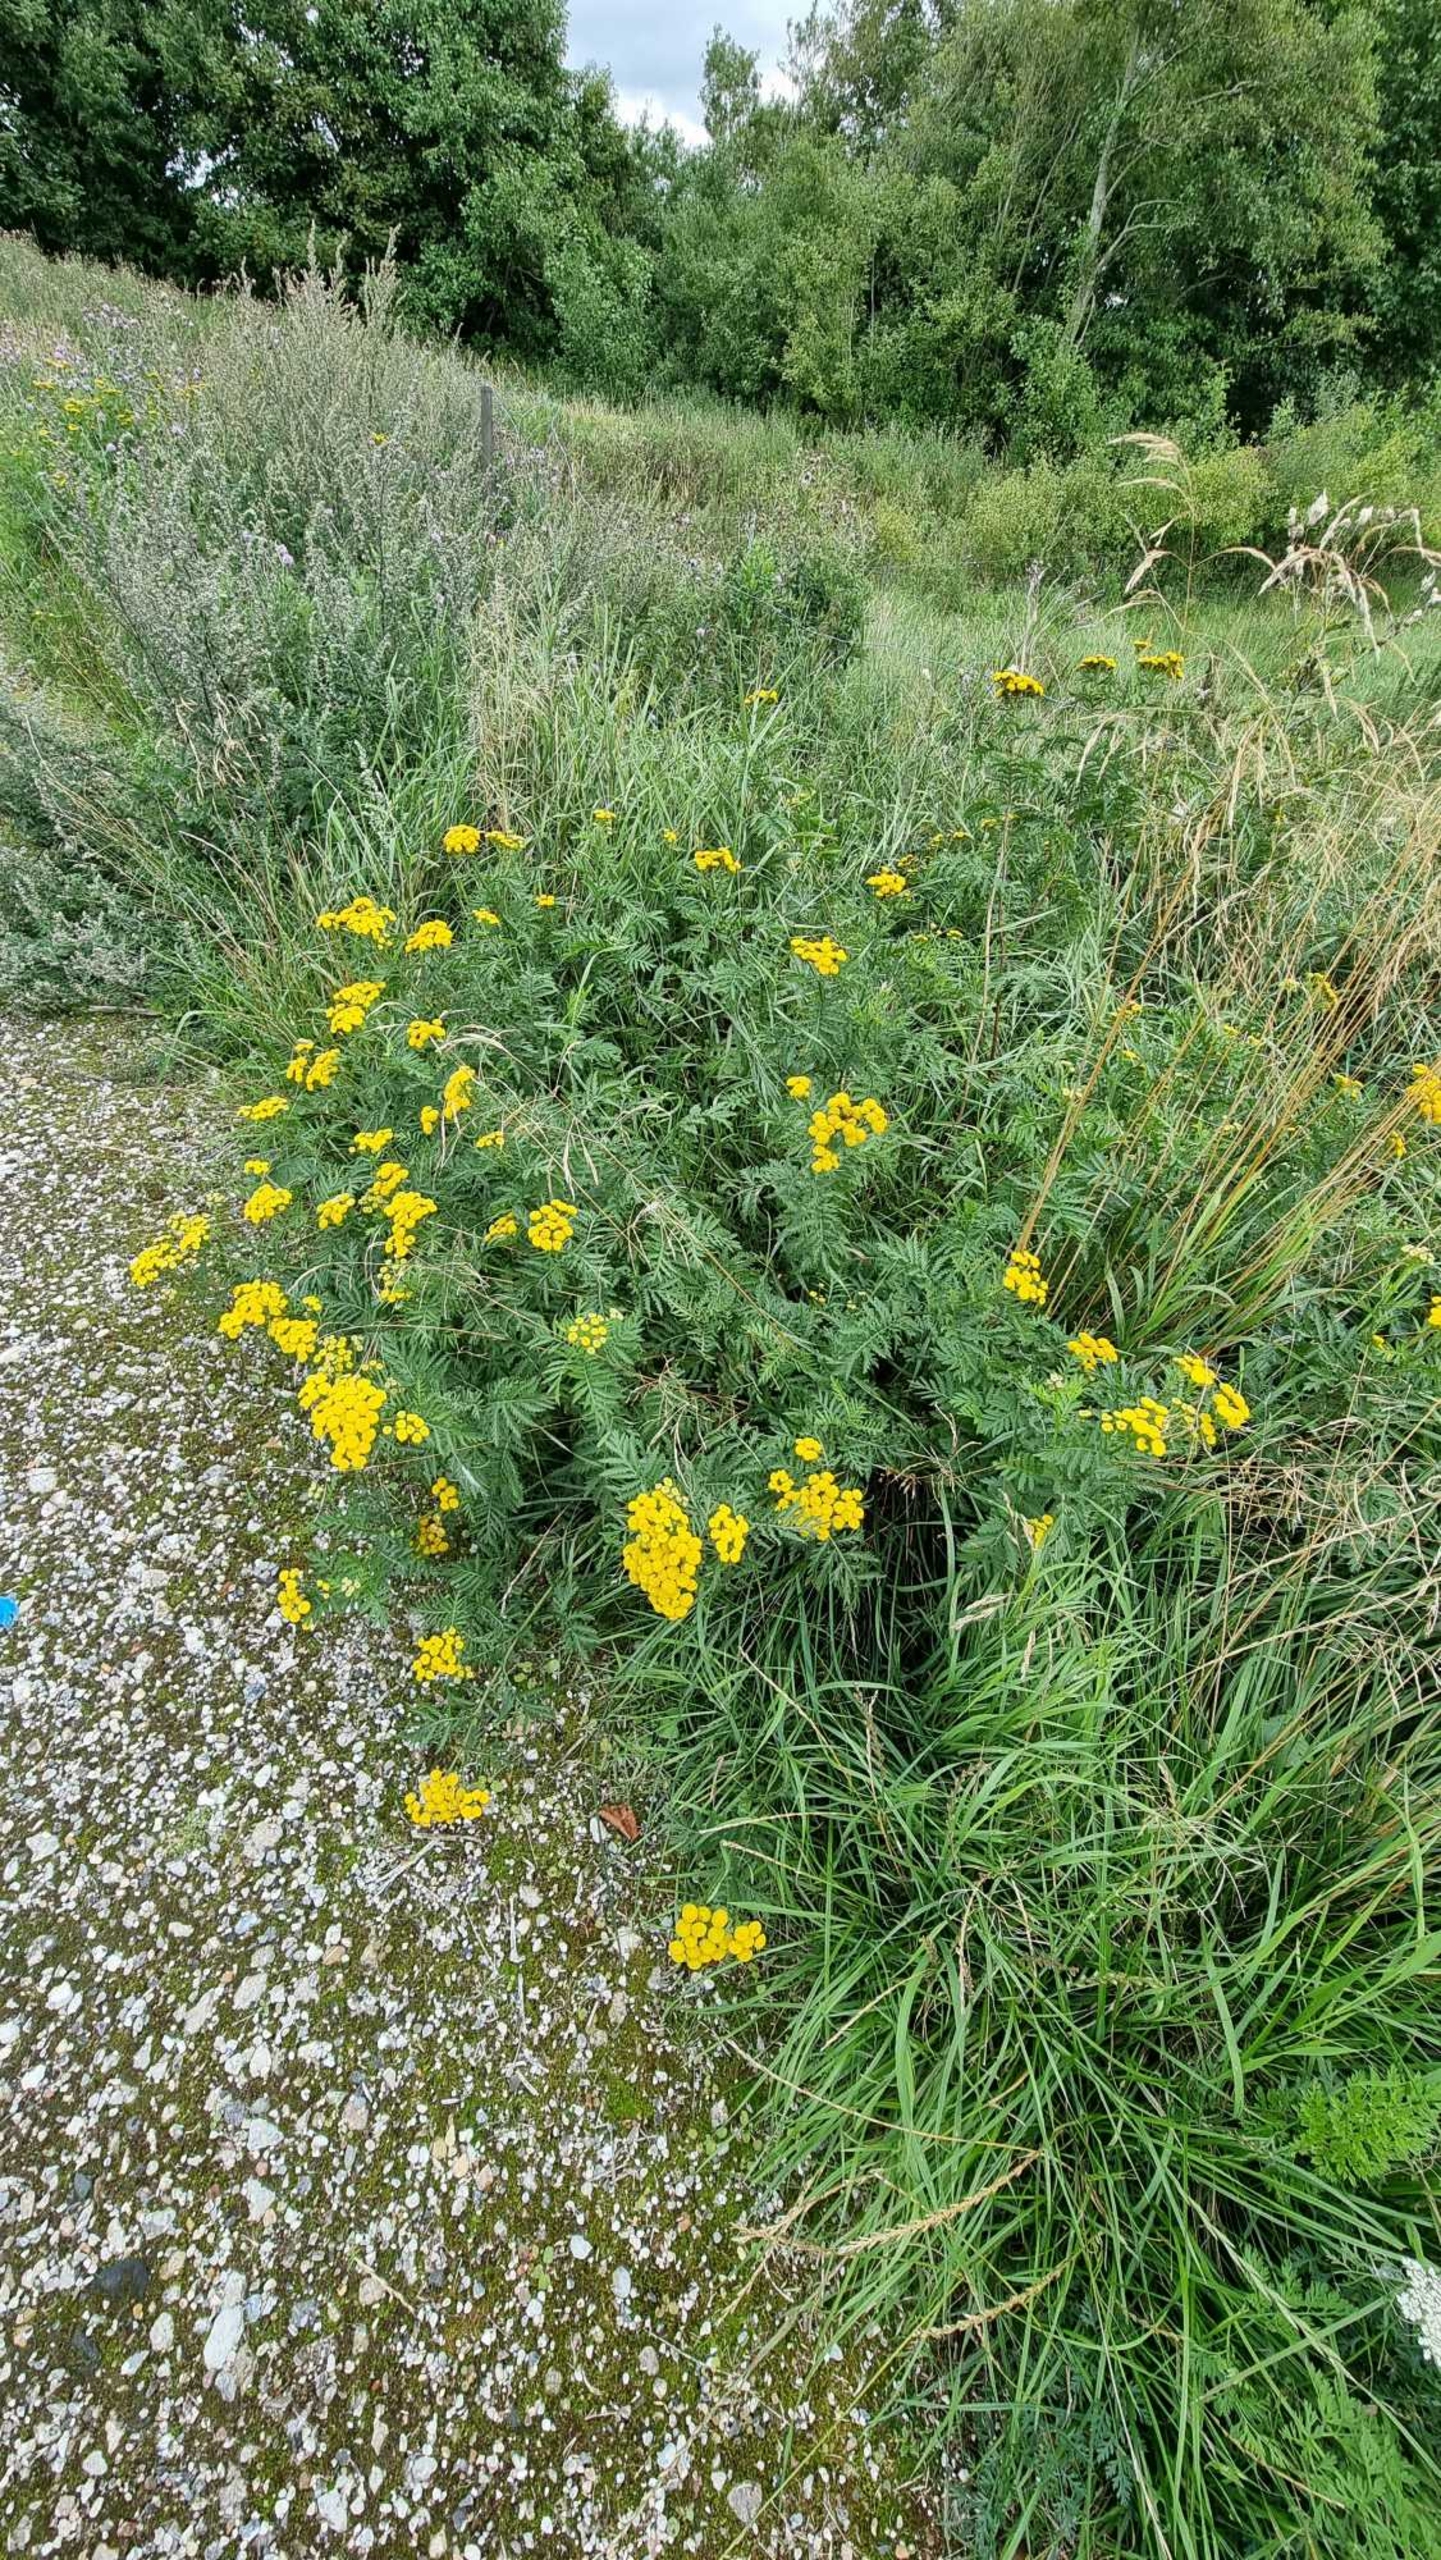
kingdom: Plantae
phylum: Tracheophyta
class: Magnoliopsida
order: Asterales
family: Asteraceae
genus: Tanacetum
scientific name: Tanacetum vulgare
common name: Rejnfan
